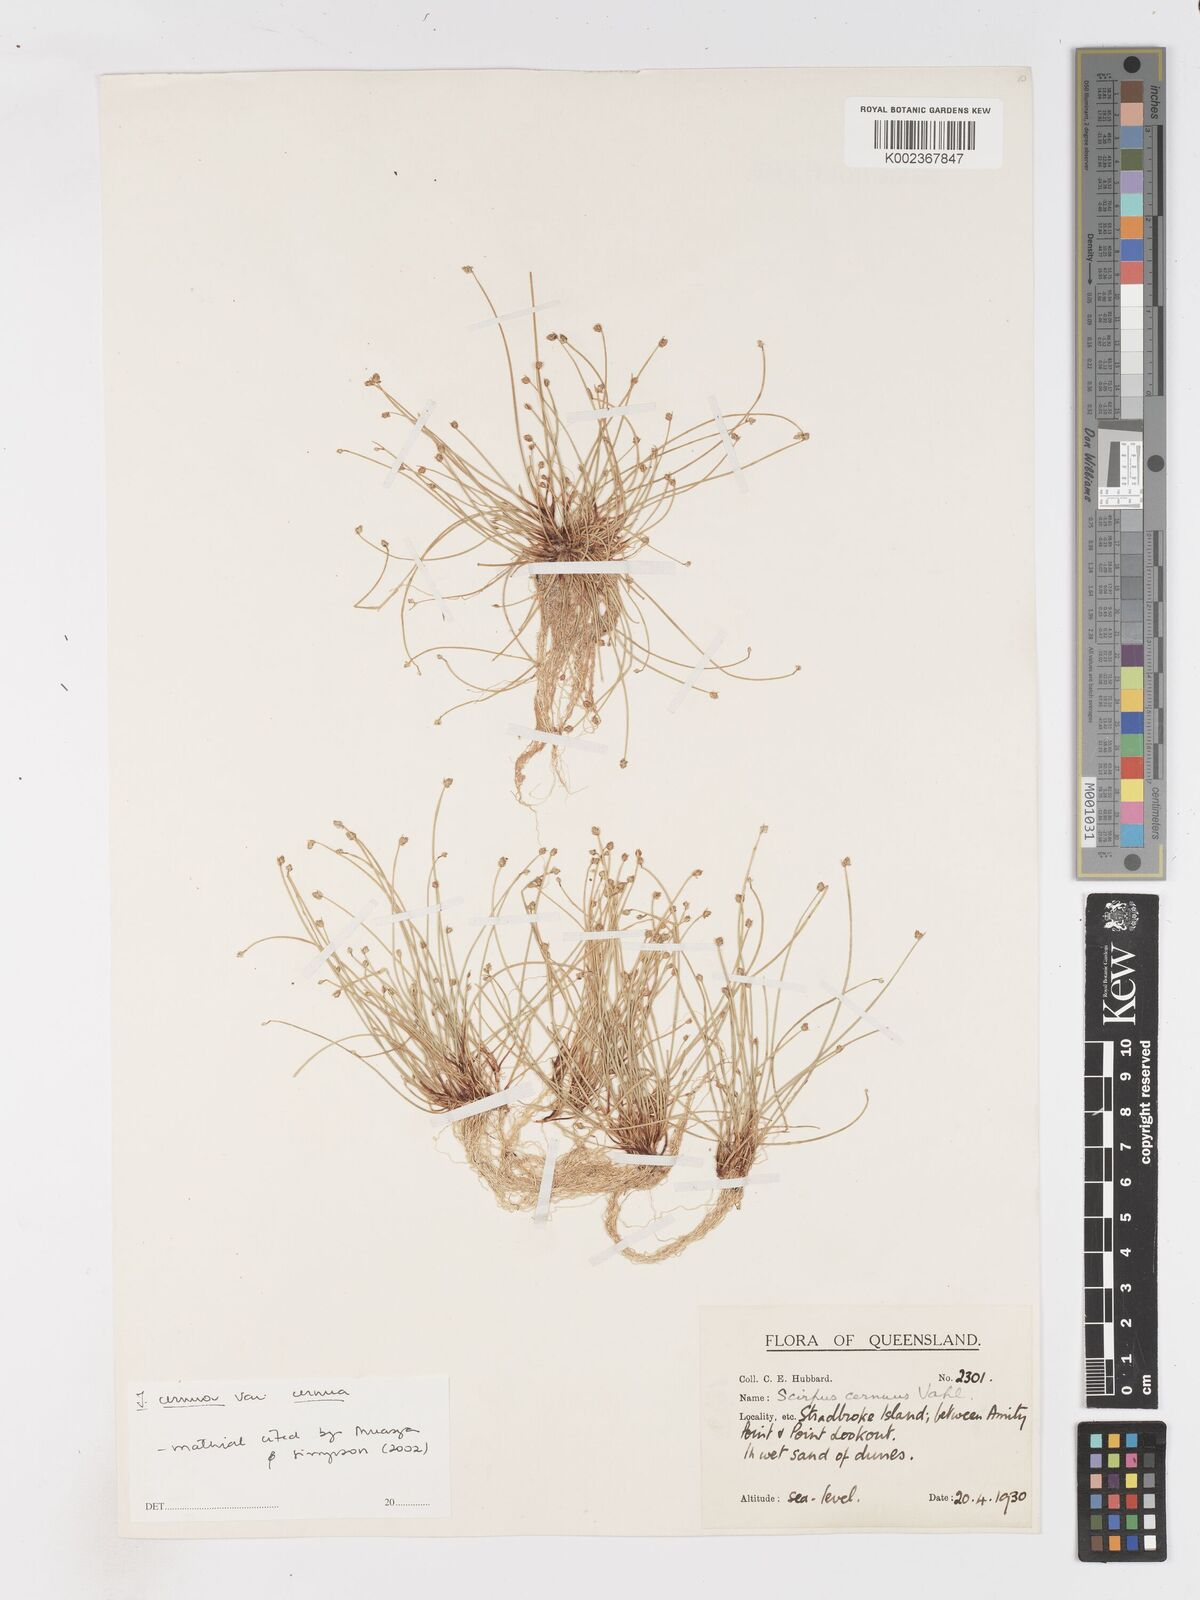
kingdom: Plantae
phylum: Tracheophyta
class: Liliopsida
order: Poales
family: Cyperaceae
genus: Isolepis
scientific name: Isolepis cernua
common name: Slender club-rush
